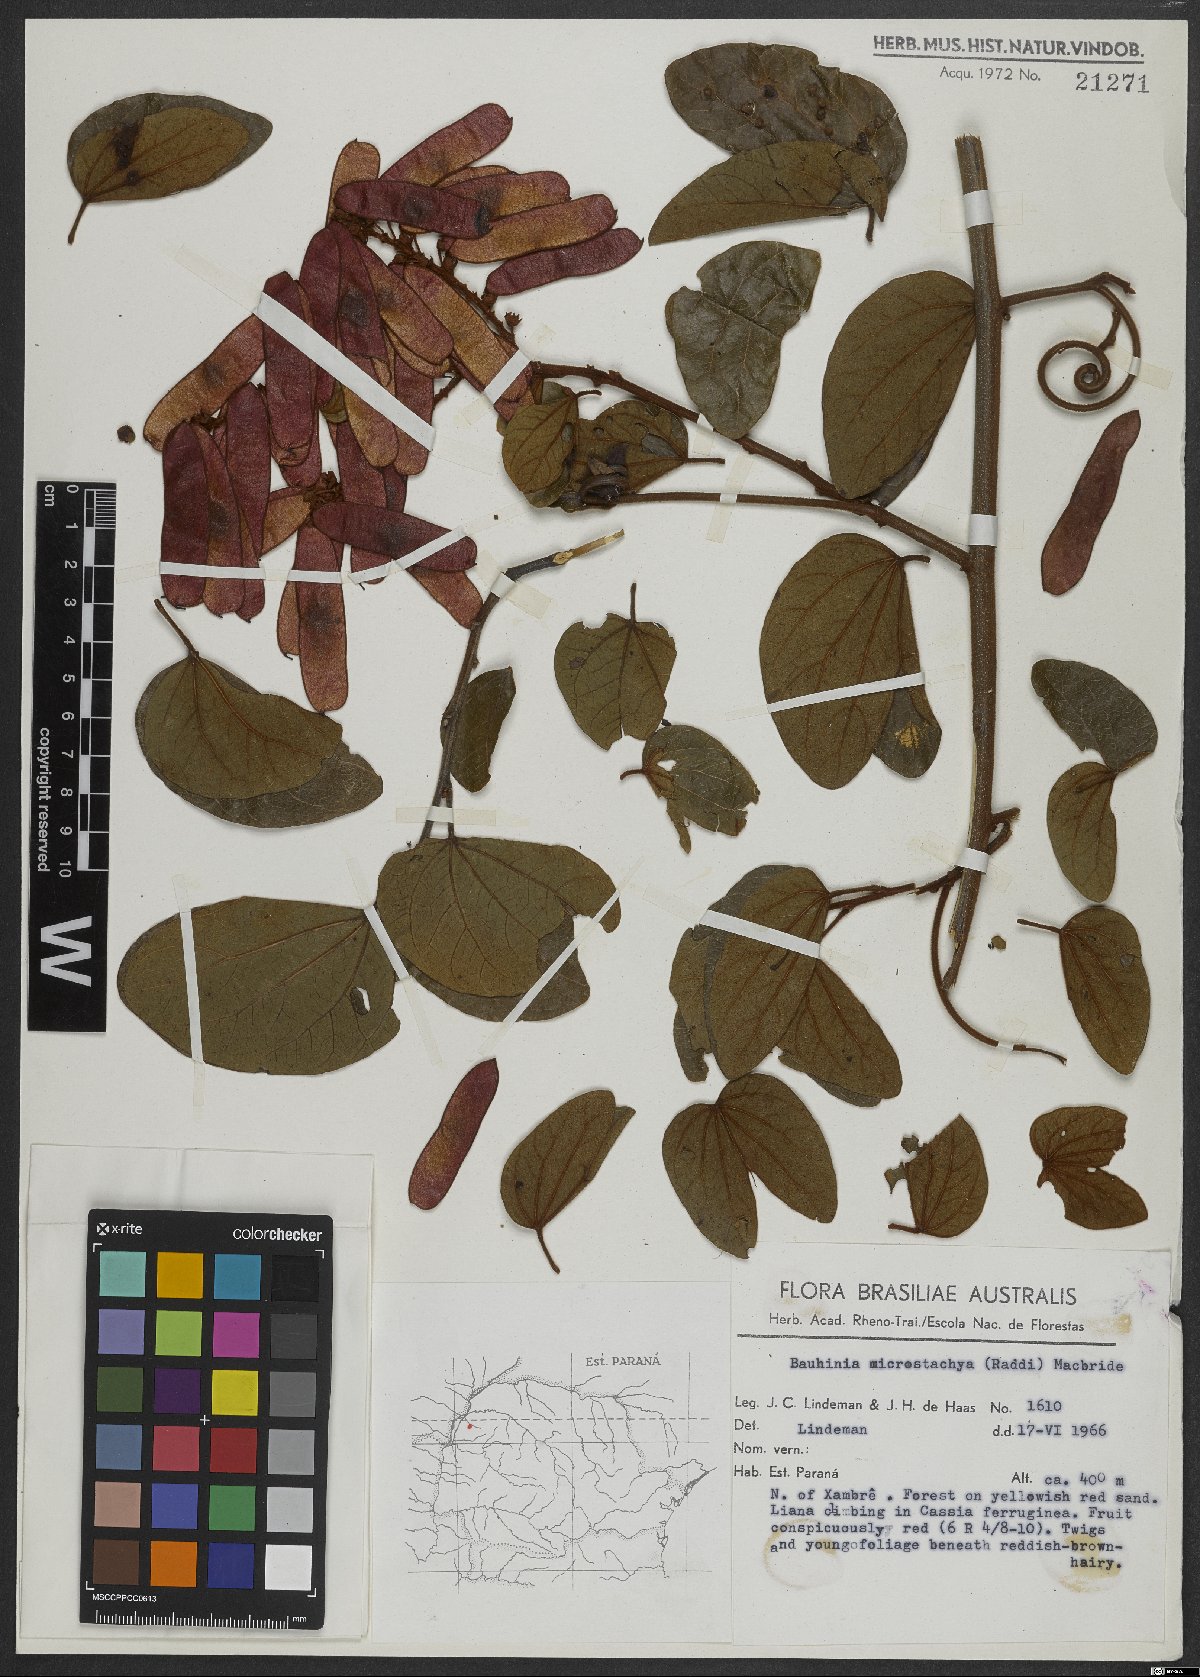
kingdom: Plantae
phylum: Tracheophyta
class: Magnoliopsida
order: Fabales
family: Fabaceae
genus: Schnella
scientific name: Schnella microstachya
